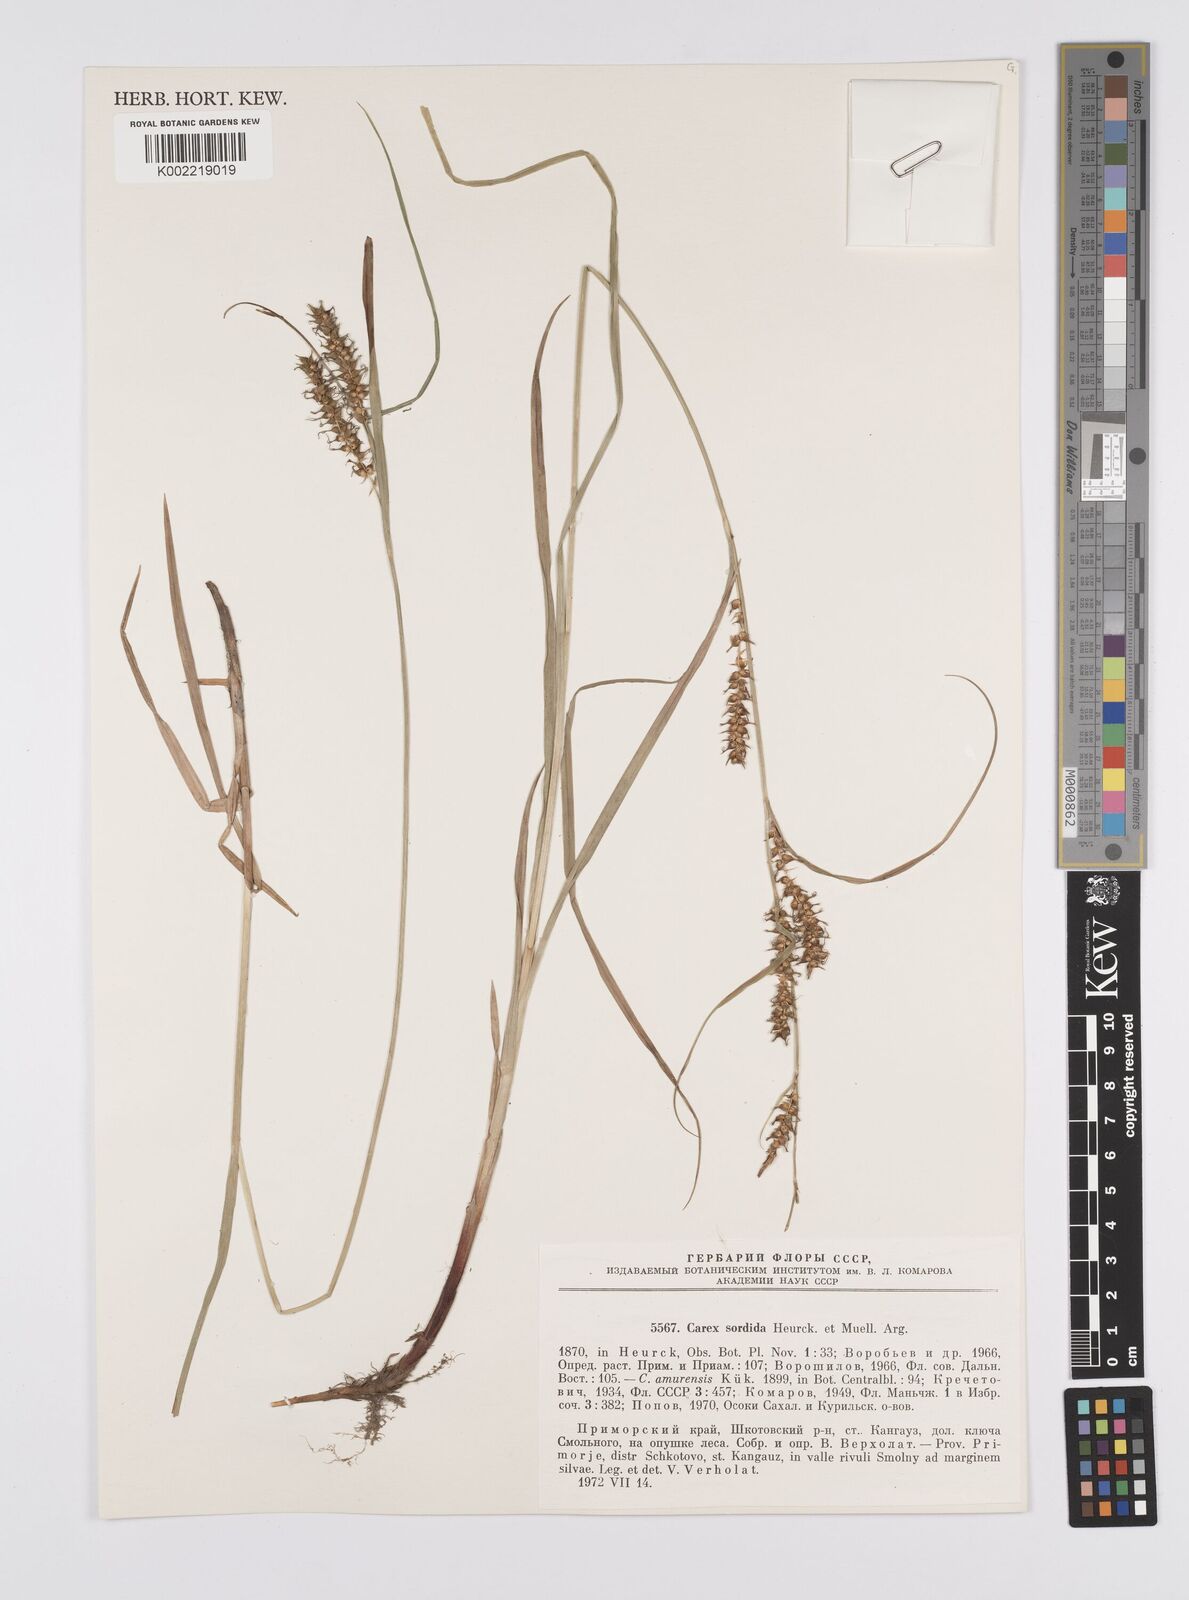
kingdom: Plantae
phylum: Tracheophyta
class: Liliopsida
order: Poales
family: Cyperaceae
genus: Carex
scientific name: Carex drymophila
